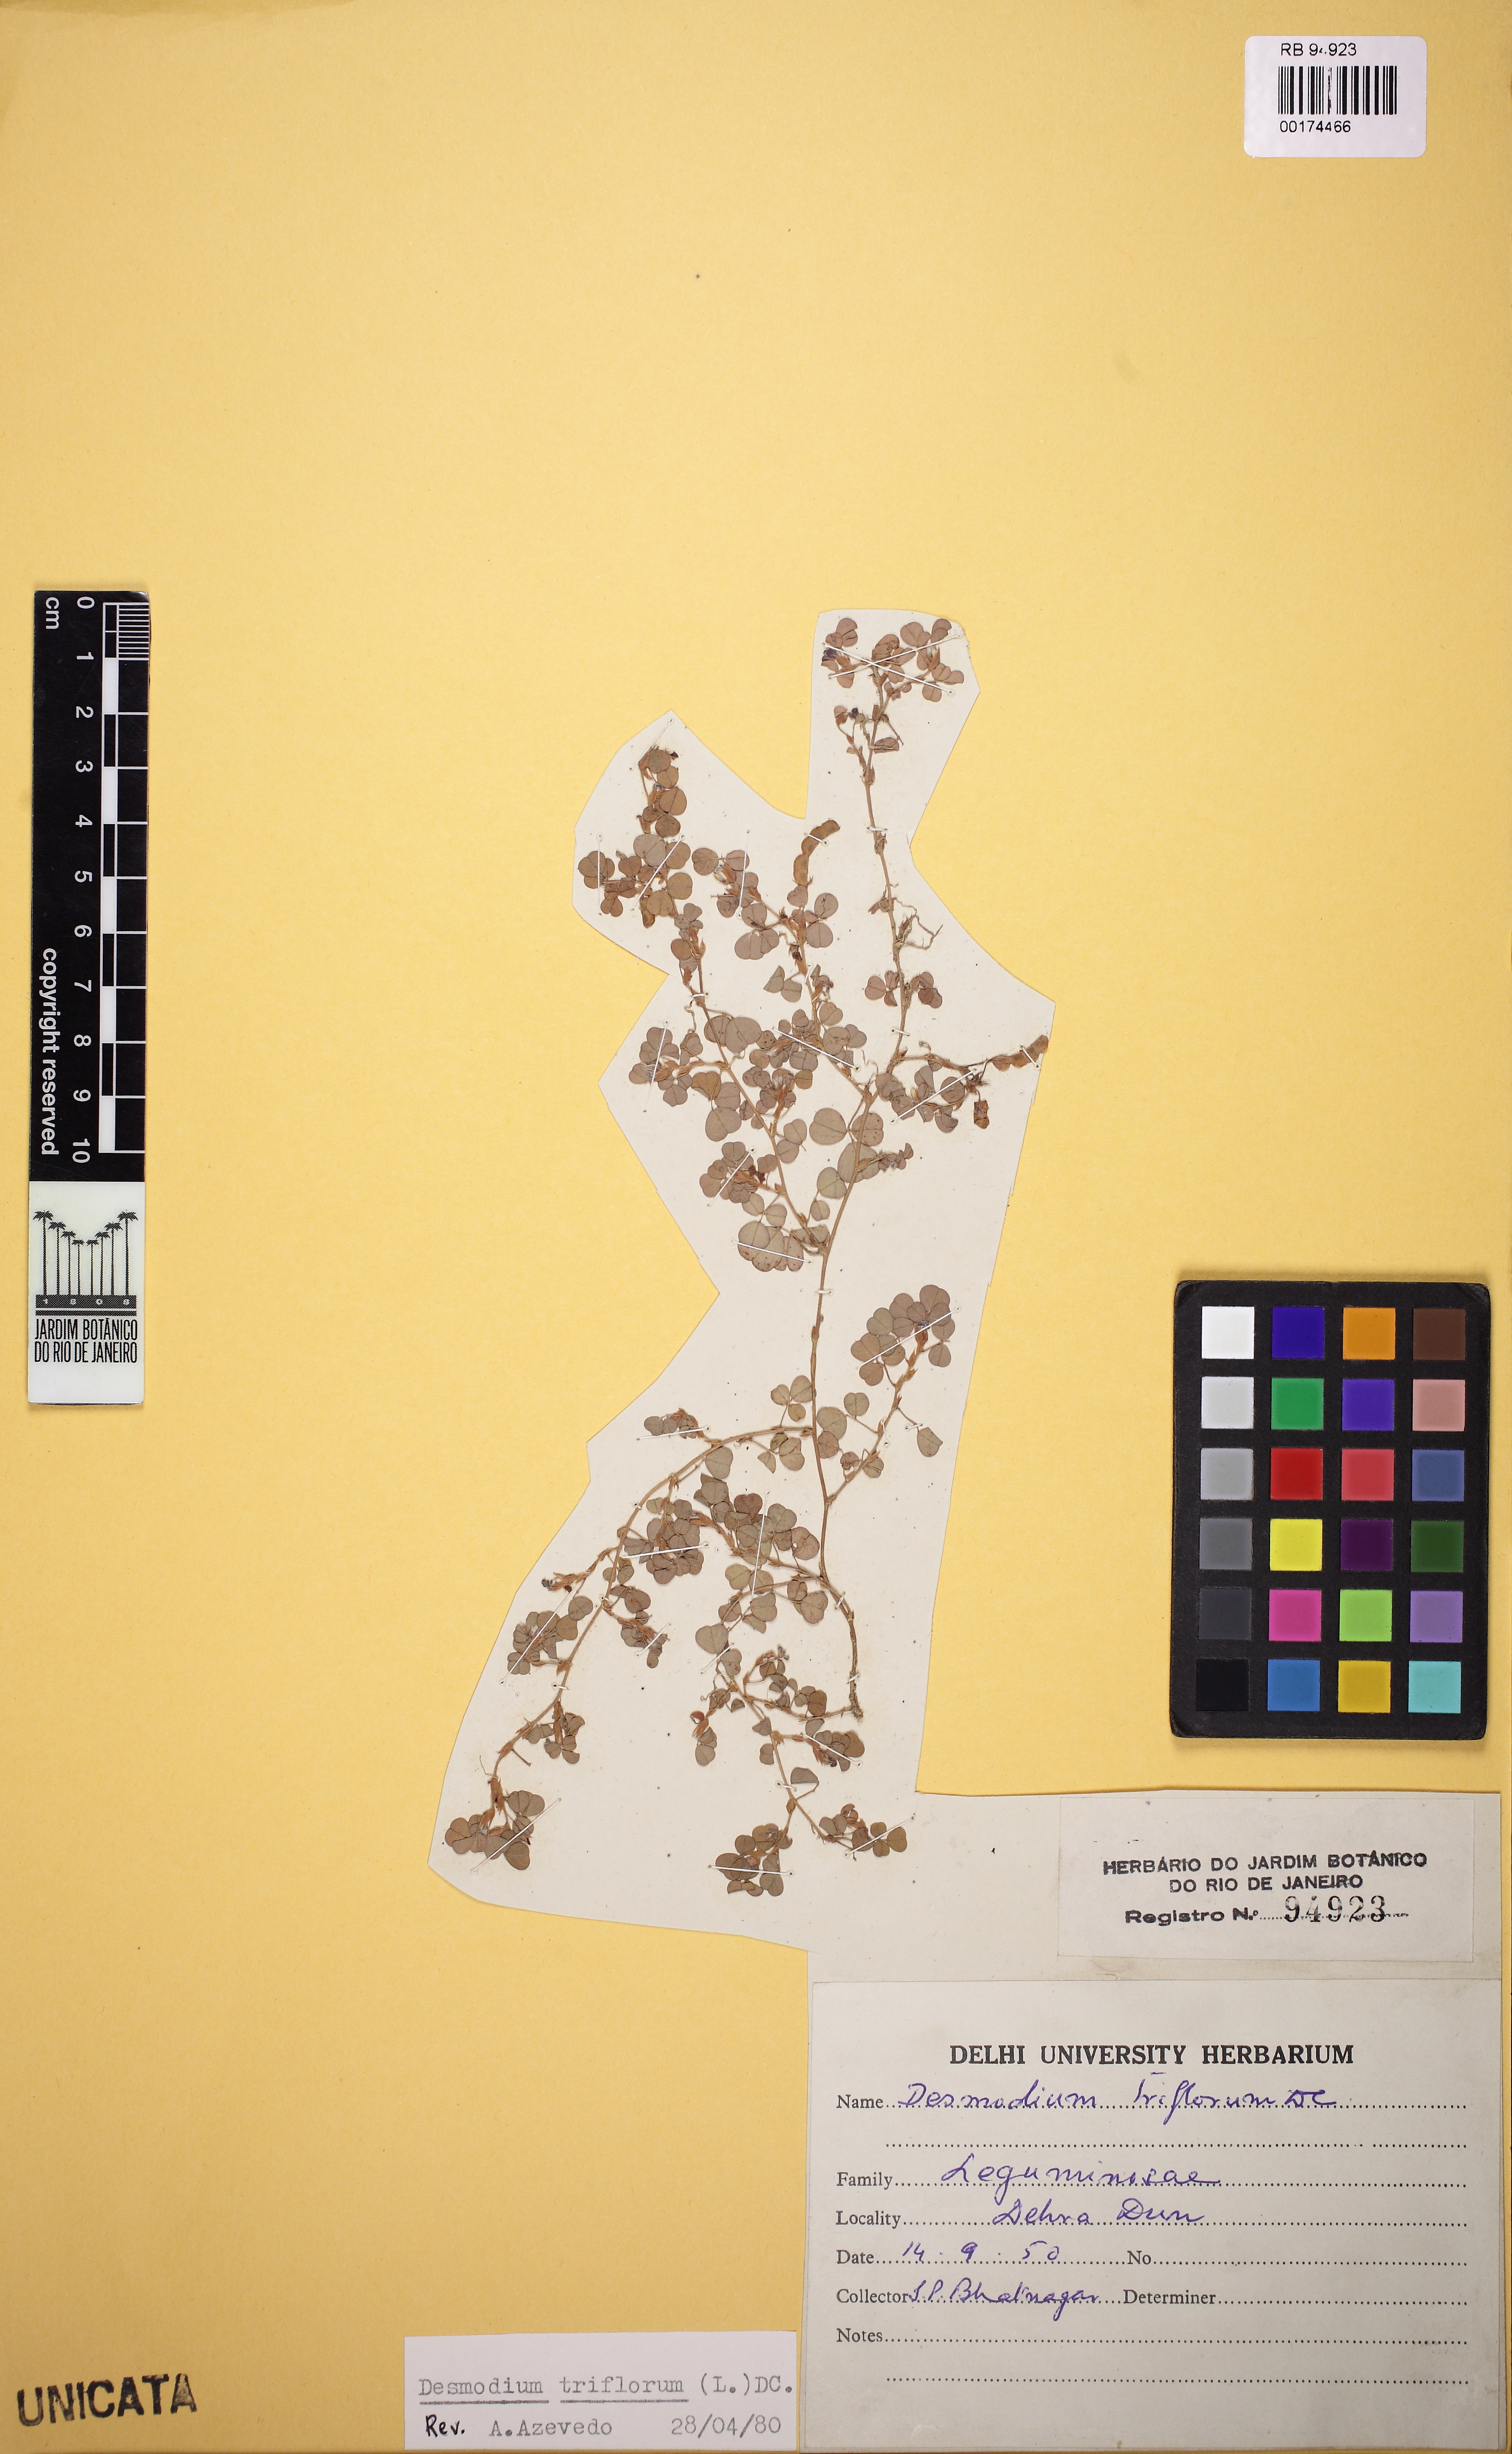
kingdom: Plantae
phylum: Tracheophyta
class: Magnoliopsida
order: Fabales
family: Fabaceae
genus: Grona
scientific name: Grona triflora
